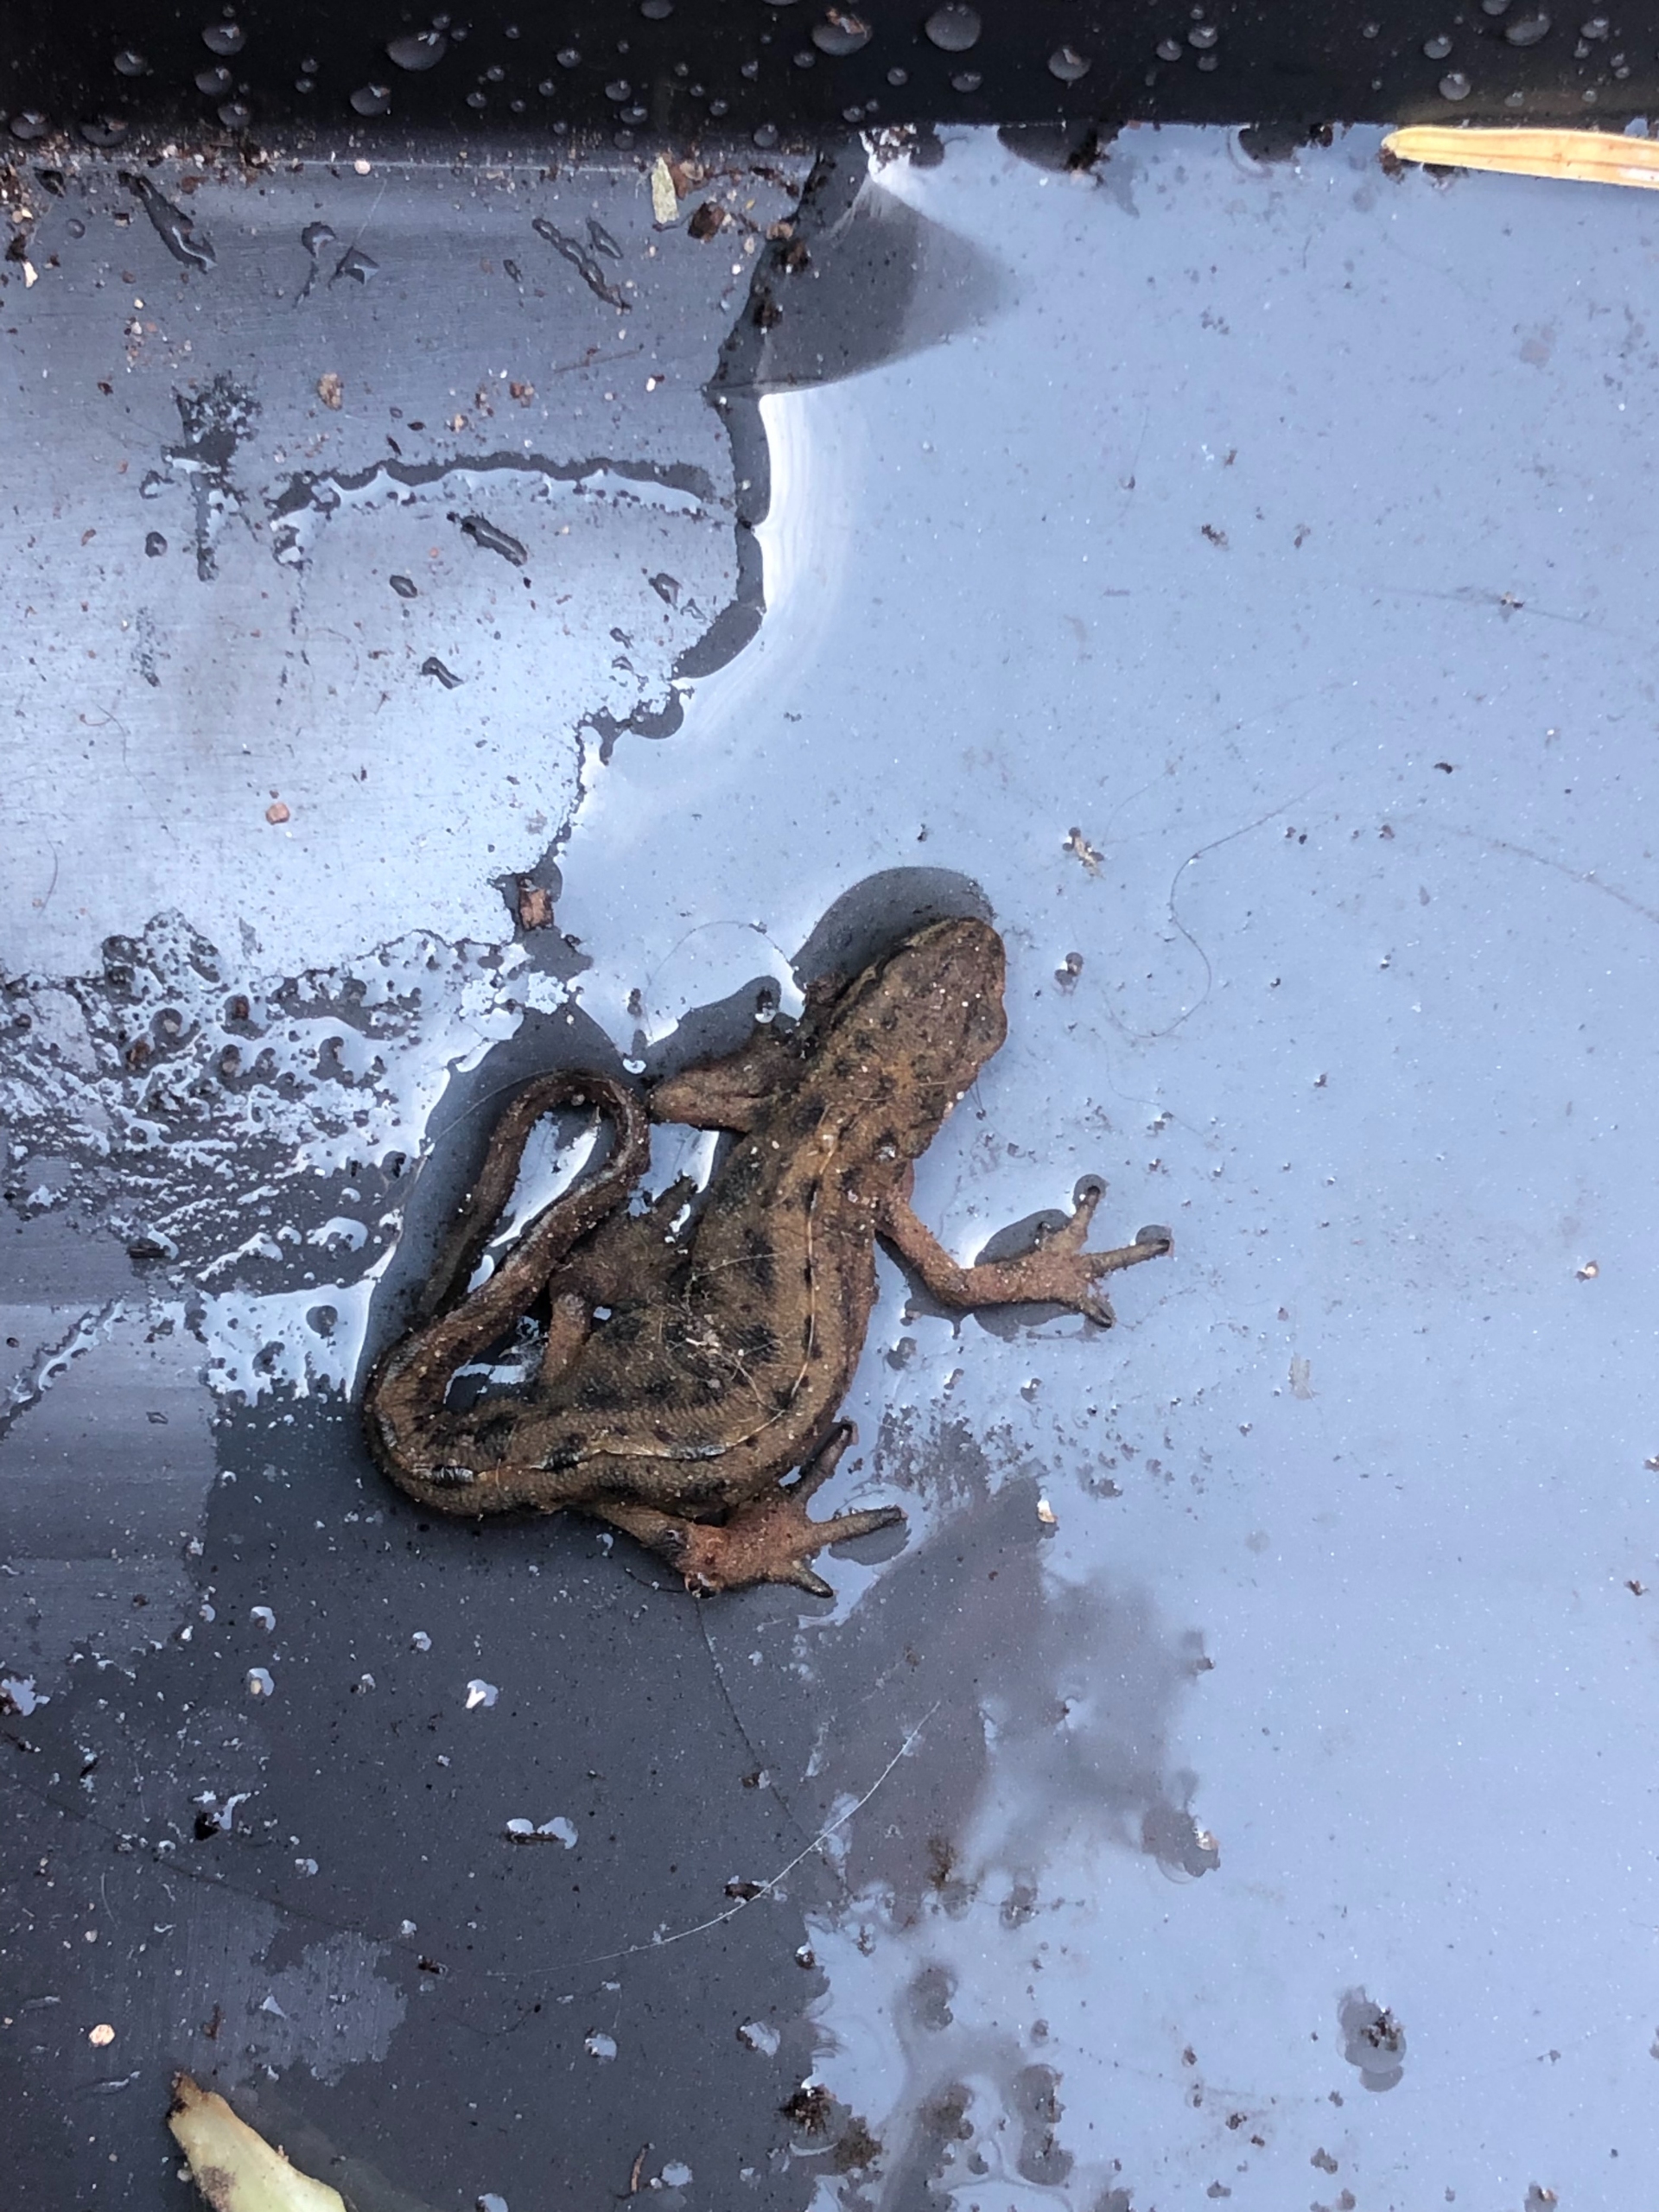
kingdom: Animalia
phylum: Chordata
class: Amphibia
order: Caudata
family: Salamandridae
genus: Lissotriton
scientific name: Lissotriton vulgaris
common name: Lille vandsalamander
